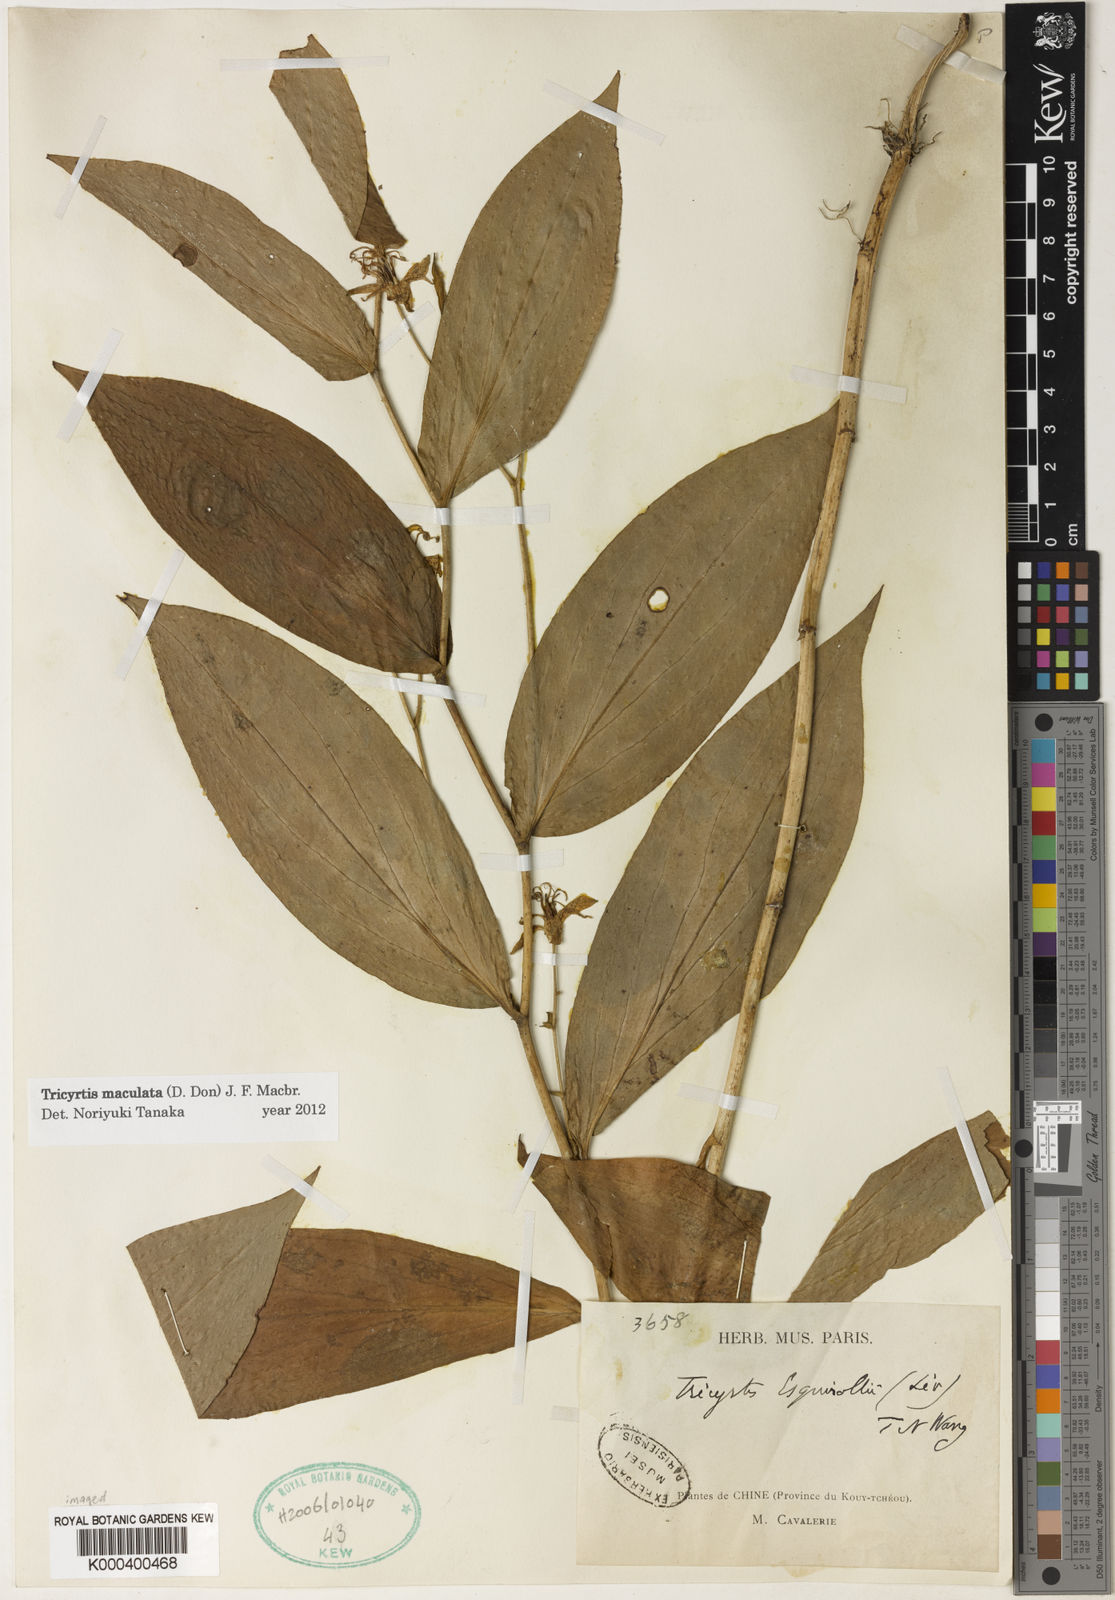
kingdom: Plantae
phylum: Tracheophyta
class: Liliopsida
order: Liliales
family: Liliaceae
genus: Tricyrtis
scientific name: Tricyrtis
